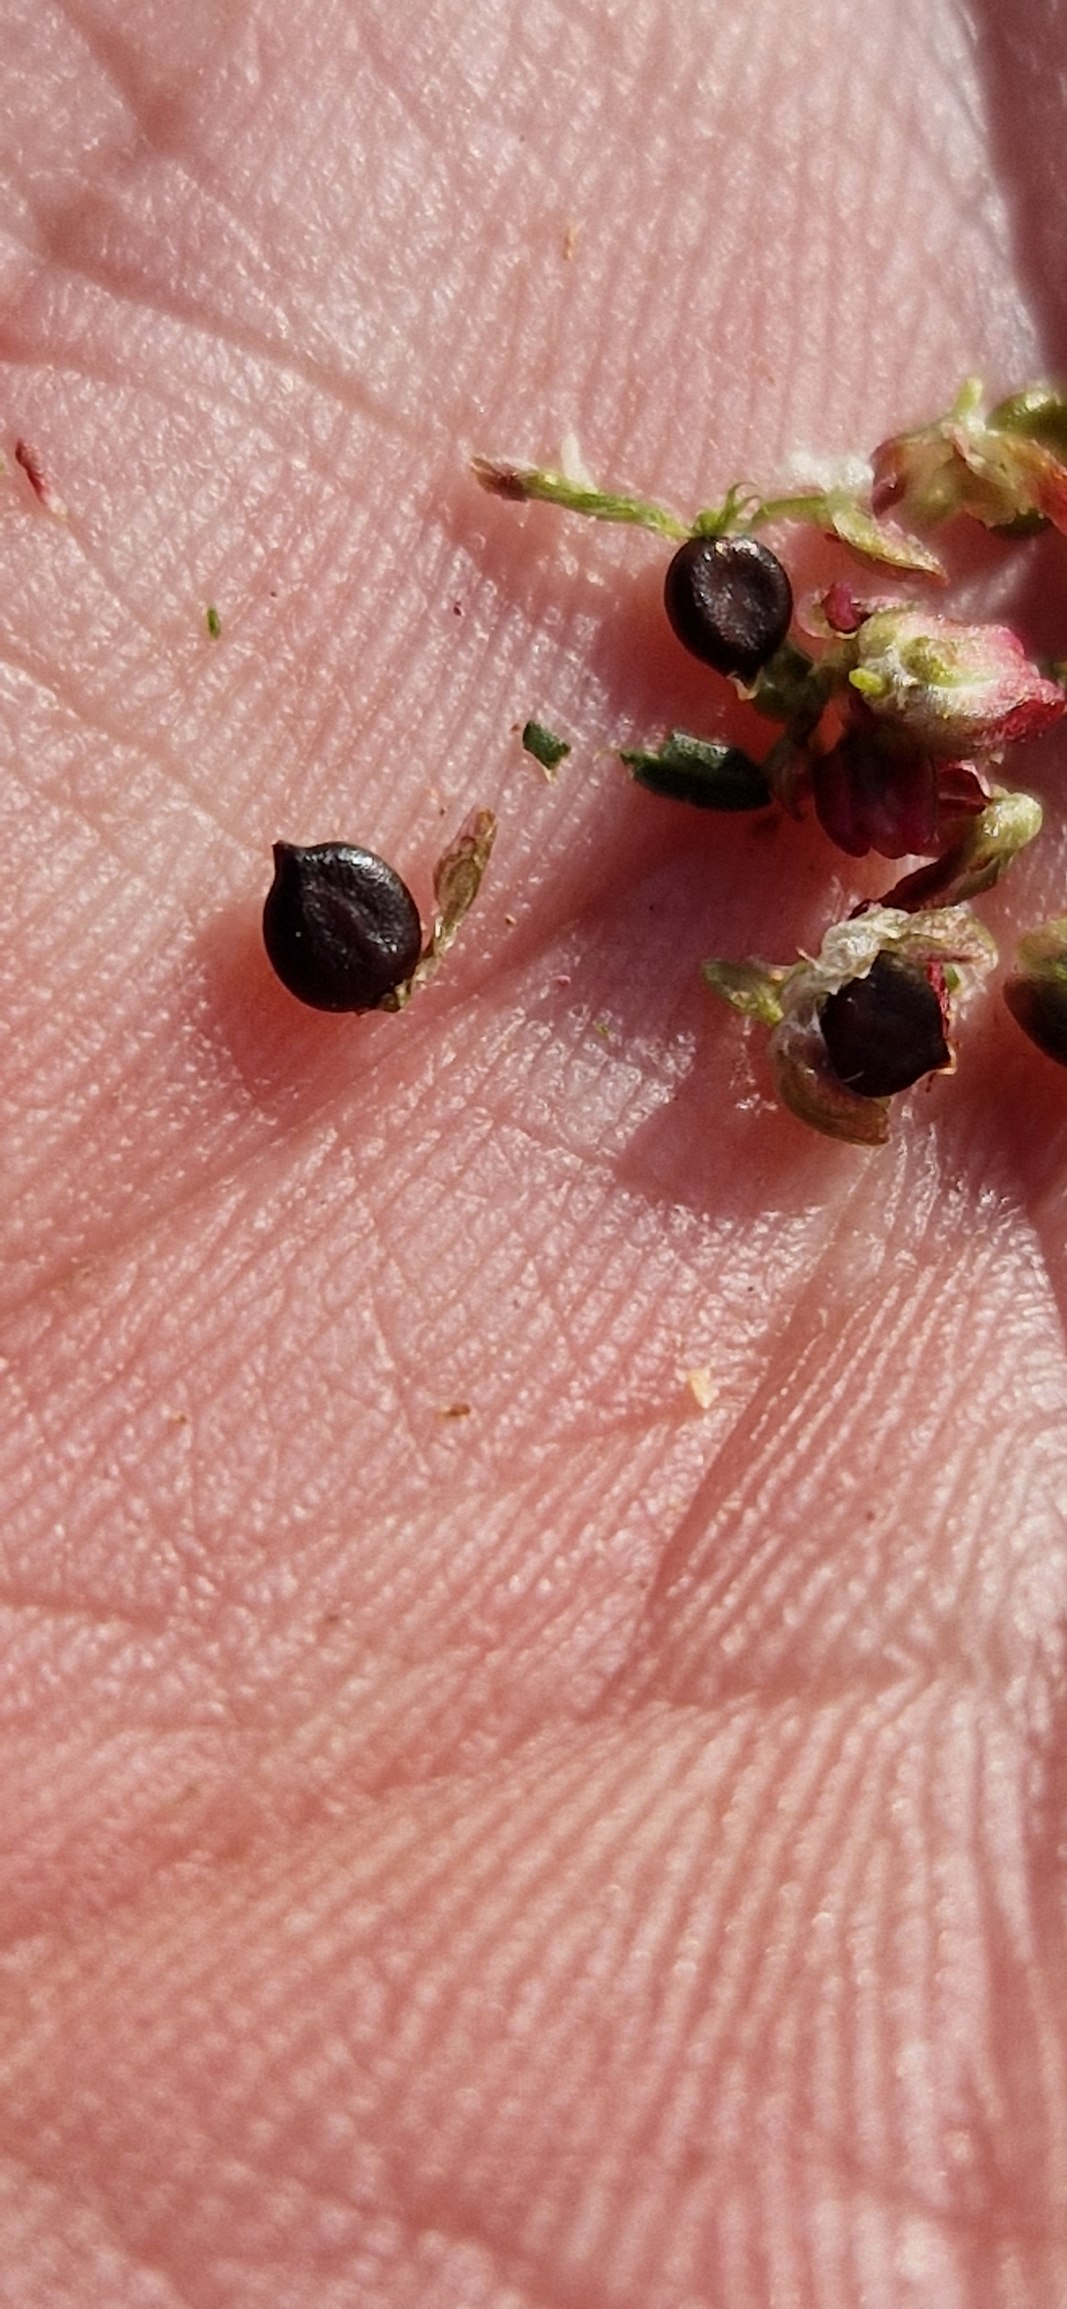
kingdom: Plantae
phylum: Tracheophyta
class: Magnoliopsida
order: Caryophyllales
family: Polygonaceae
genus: Persicaria
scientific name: Persicaria lapathifolia
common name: Knudet pileurt (underart)
